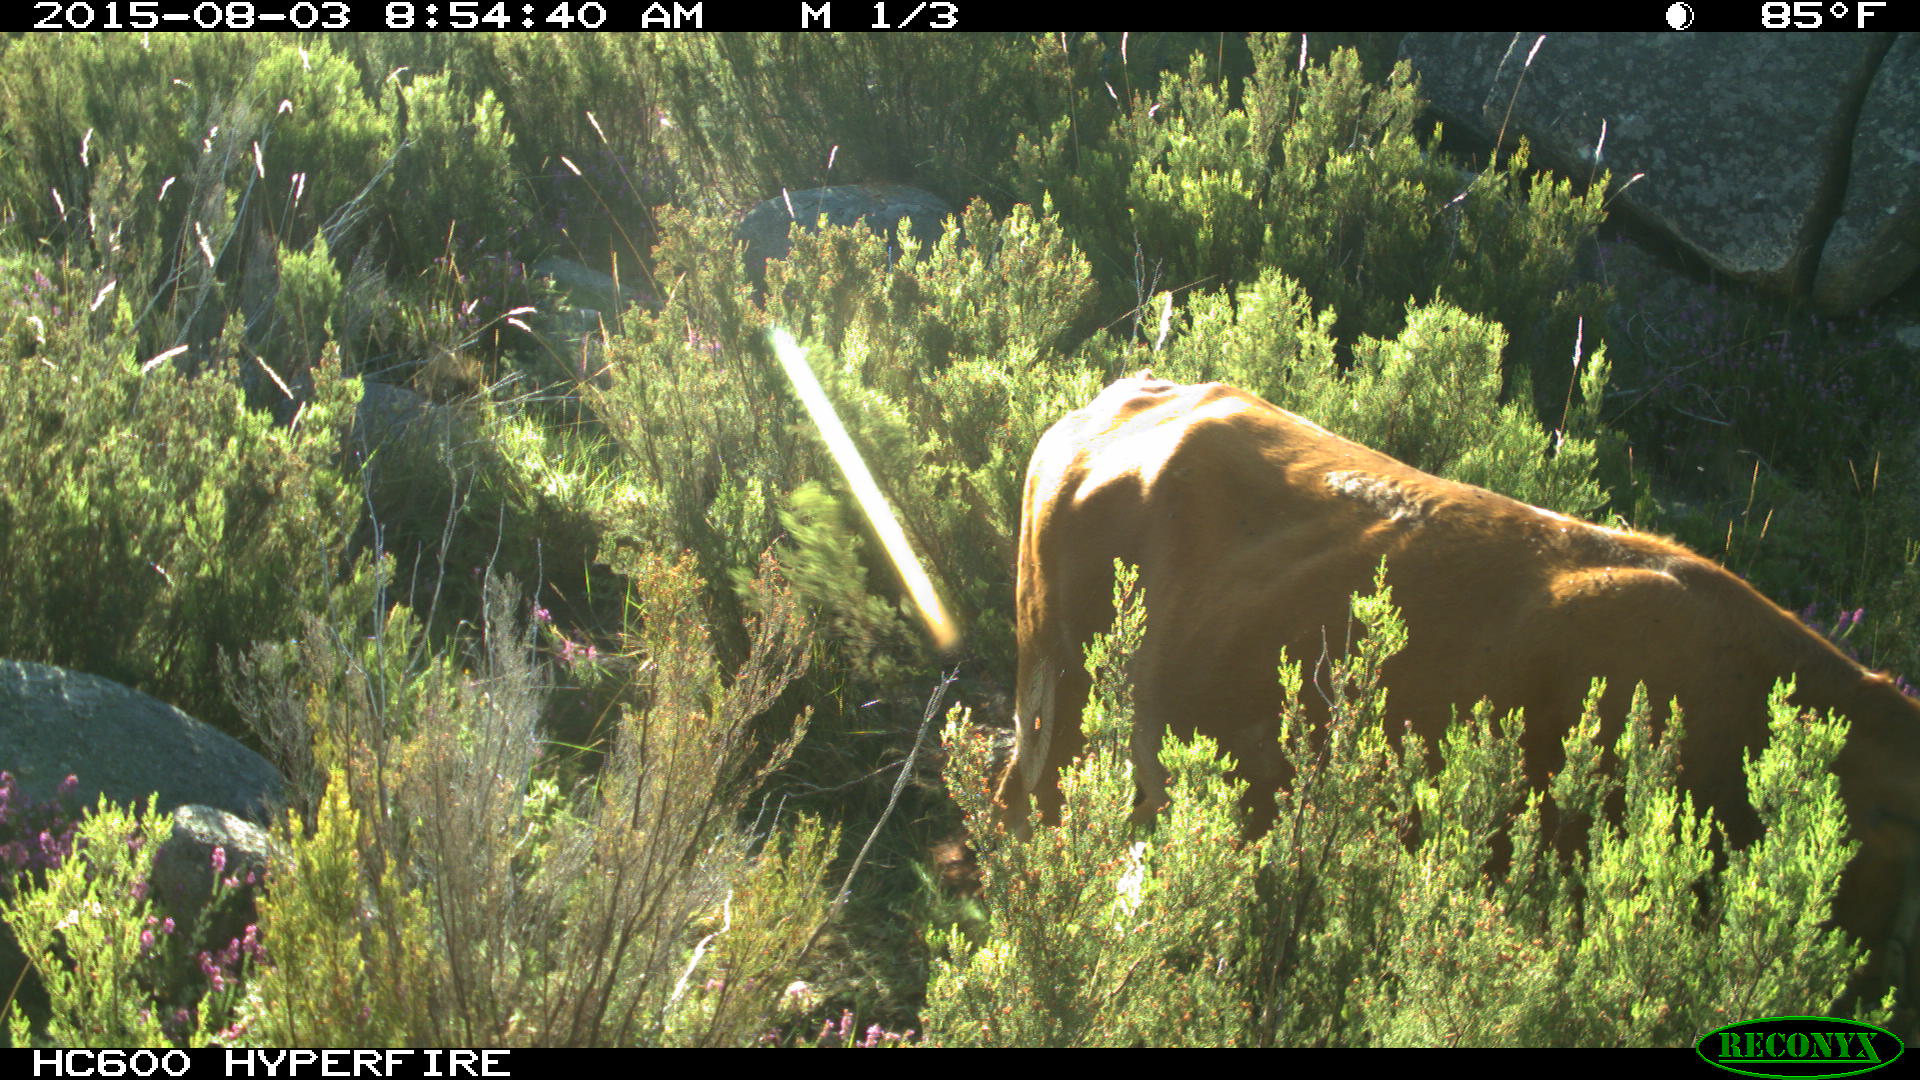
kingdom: Animalia
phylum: Chordata
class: Mammalia
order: Artiodactyla
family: Bovidae
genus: Bos
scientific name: Bos taurus
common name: Domesticated cattle
